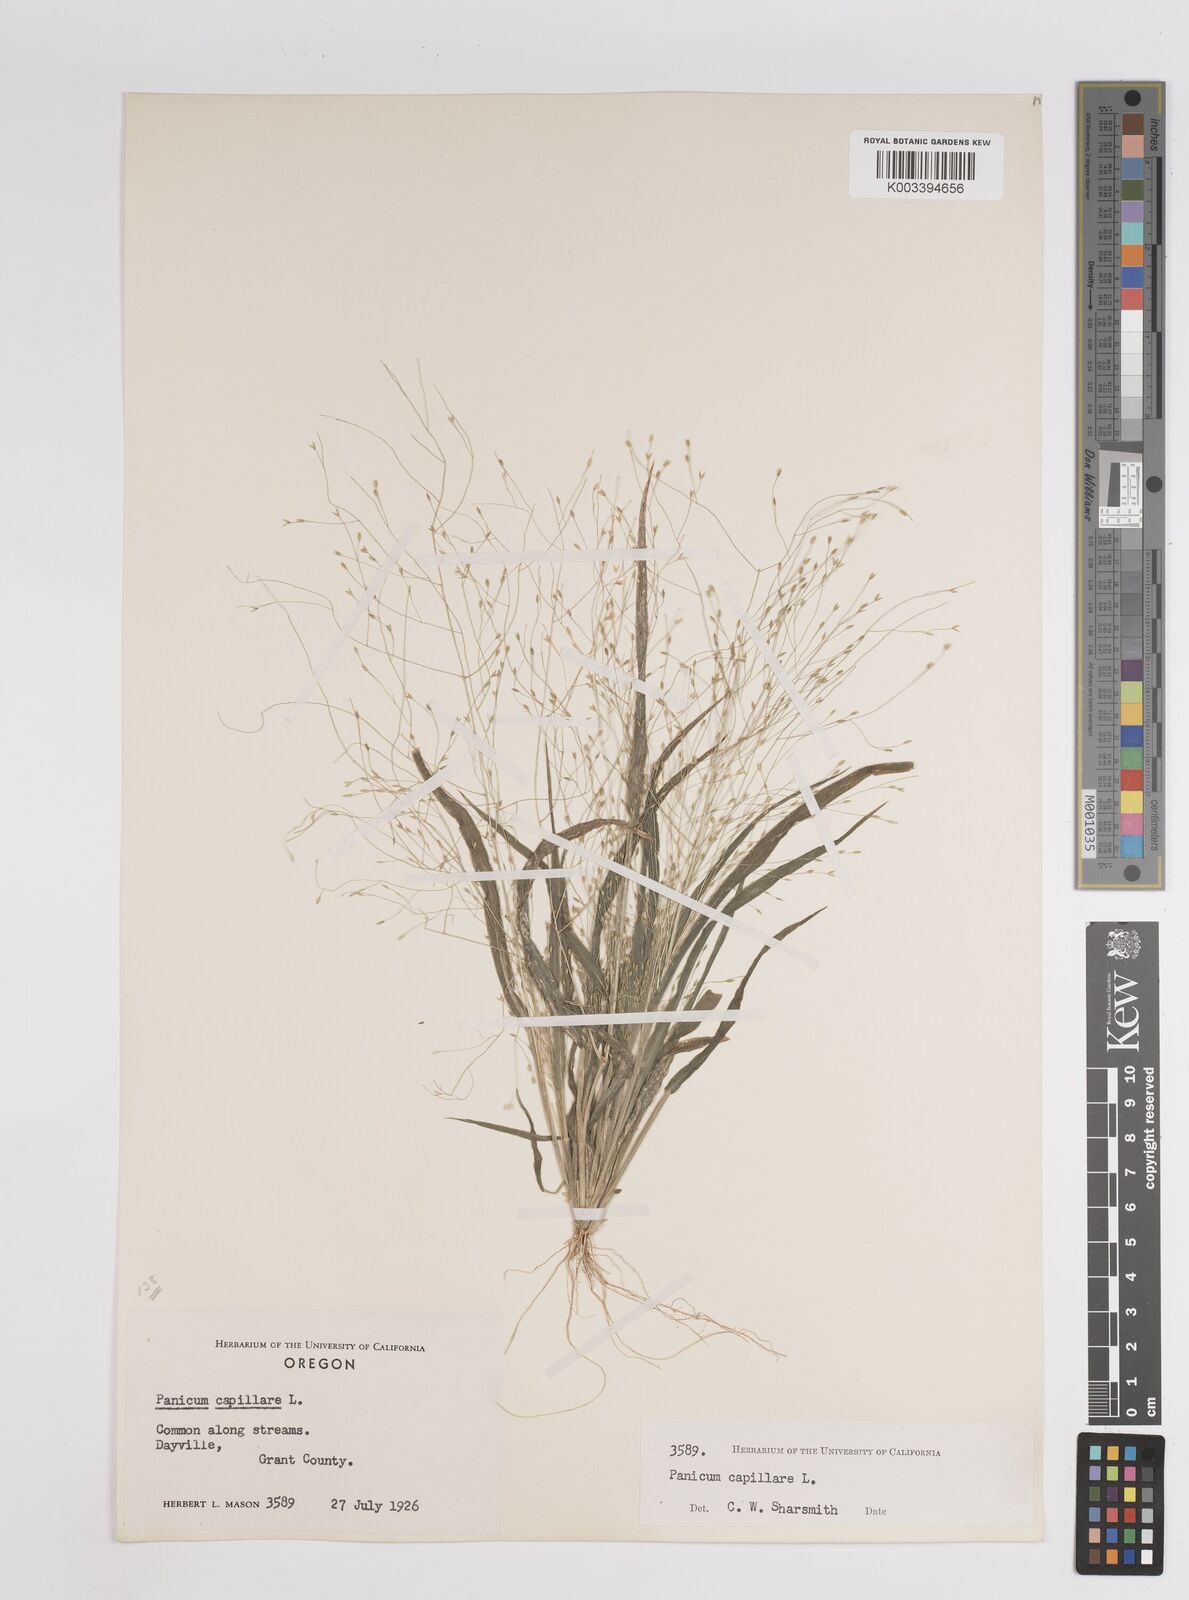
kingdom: Plantae
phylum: Tracheophyta
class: Liliopsida
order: Poales
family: Poaceae
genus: Panicum
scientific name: Panicum capillare
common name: Witch-grass
